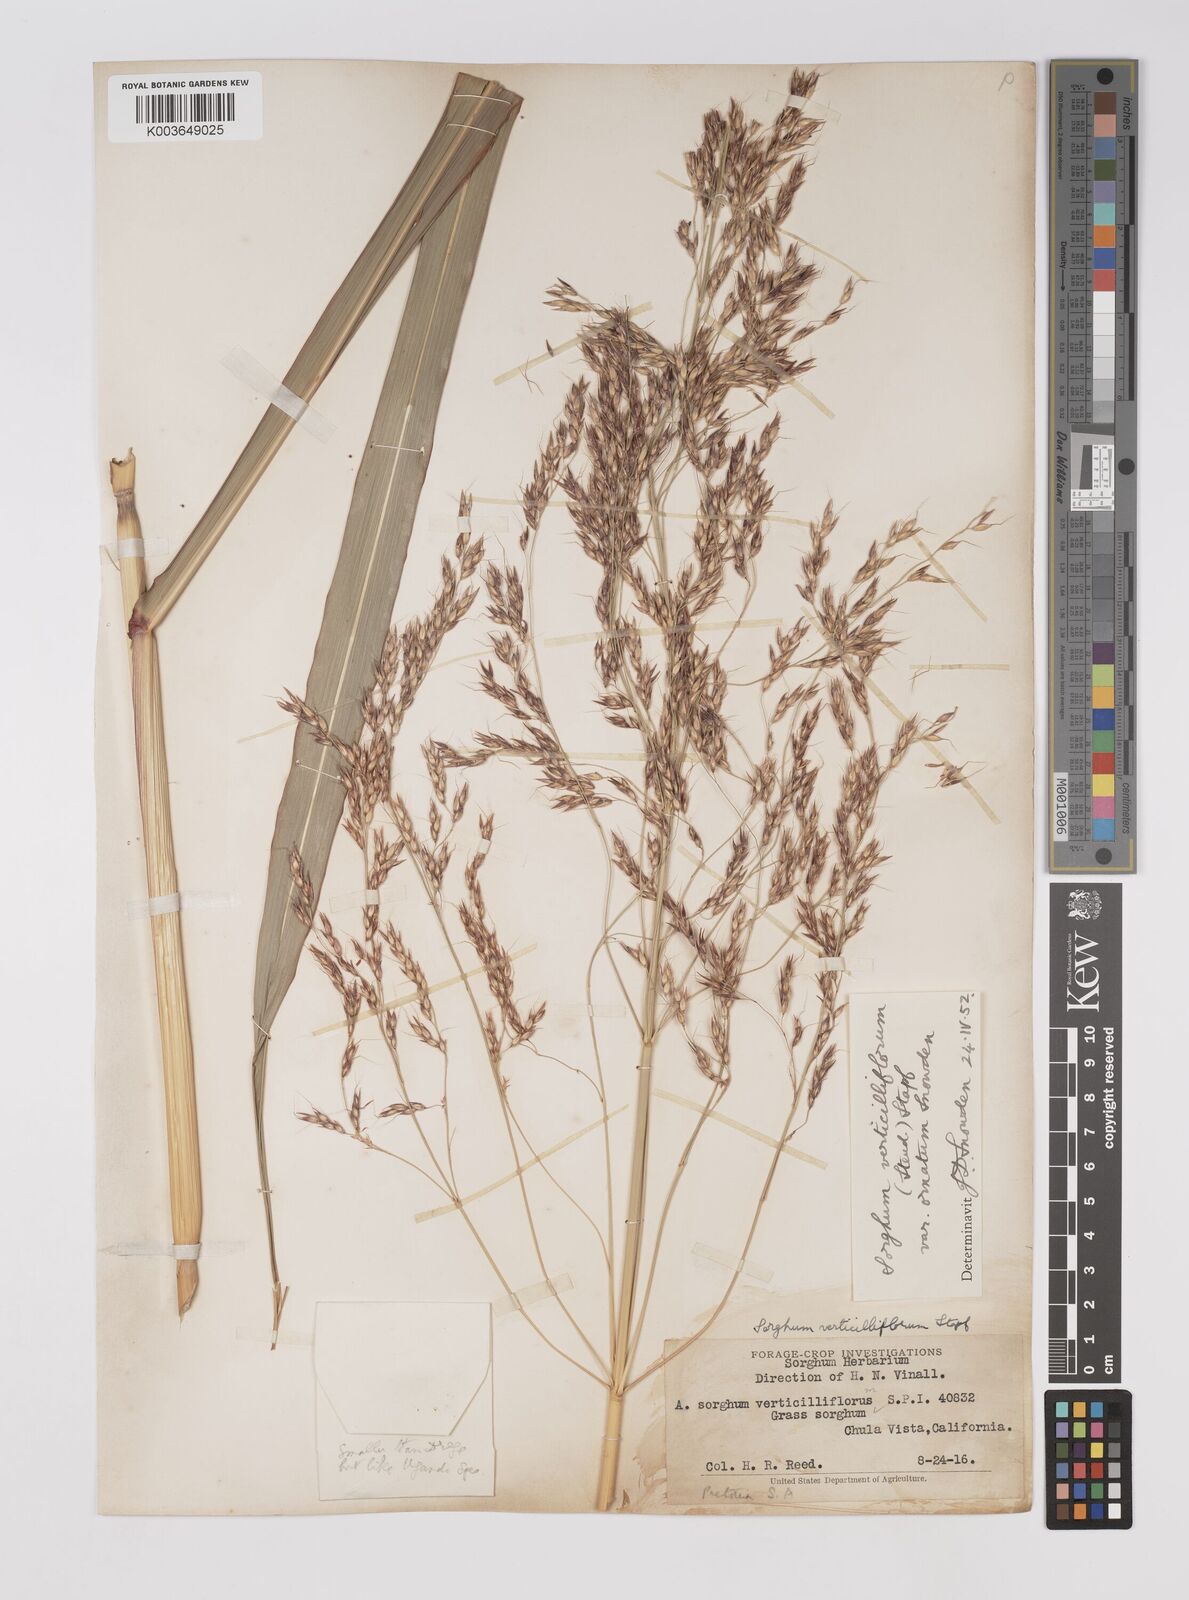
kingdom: Plantae
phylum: Tracheophyta
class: Liliopsida
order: Poales
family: Poaceae
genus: Sorghum
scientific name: Sorghum arundinaceum
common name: Sorghum
